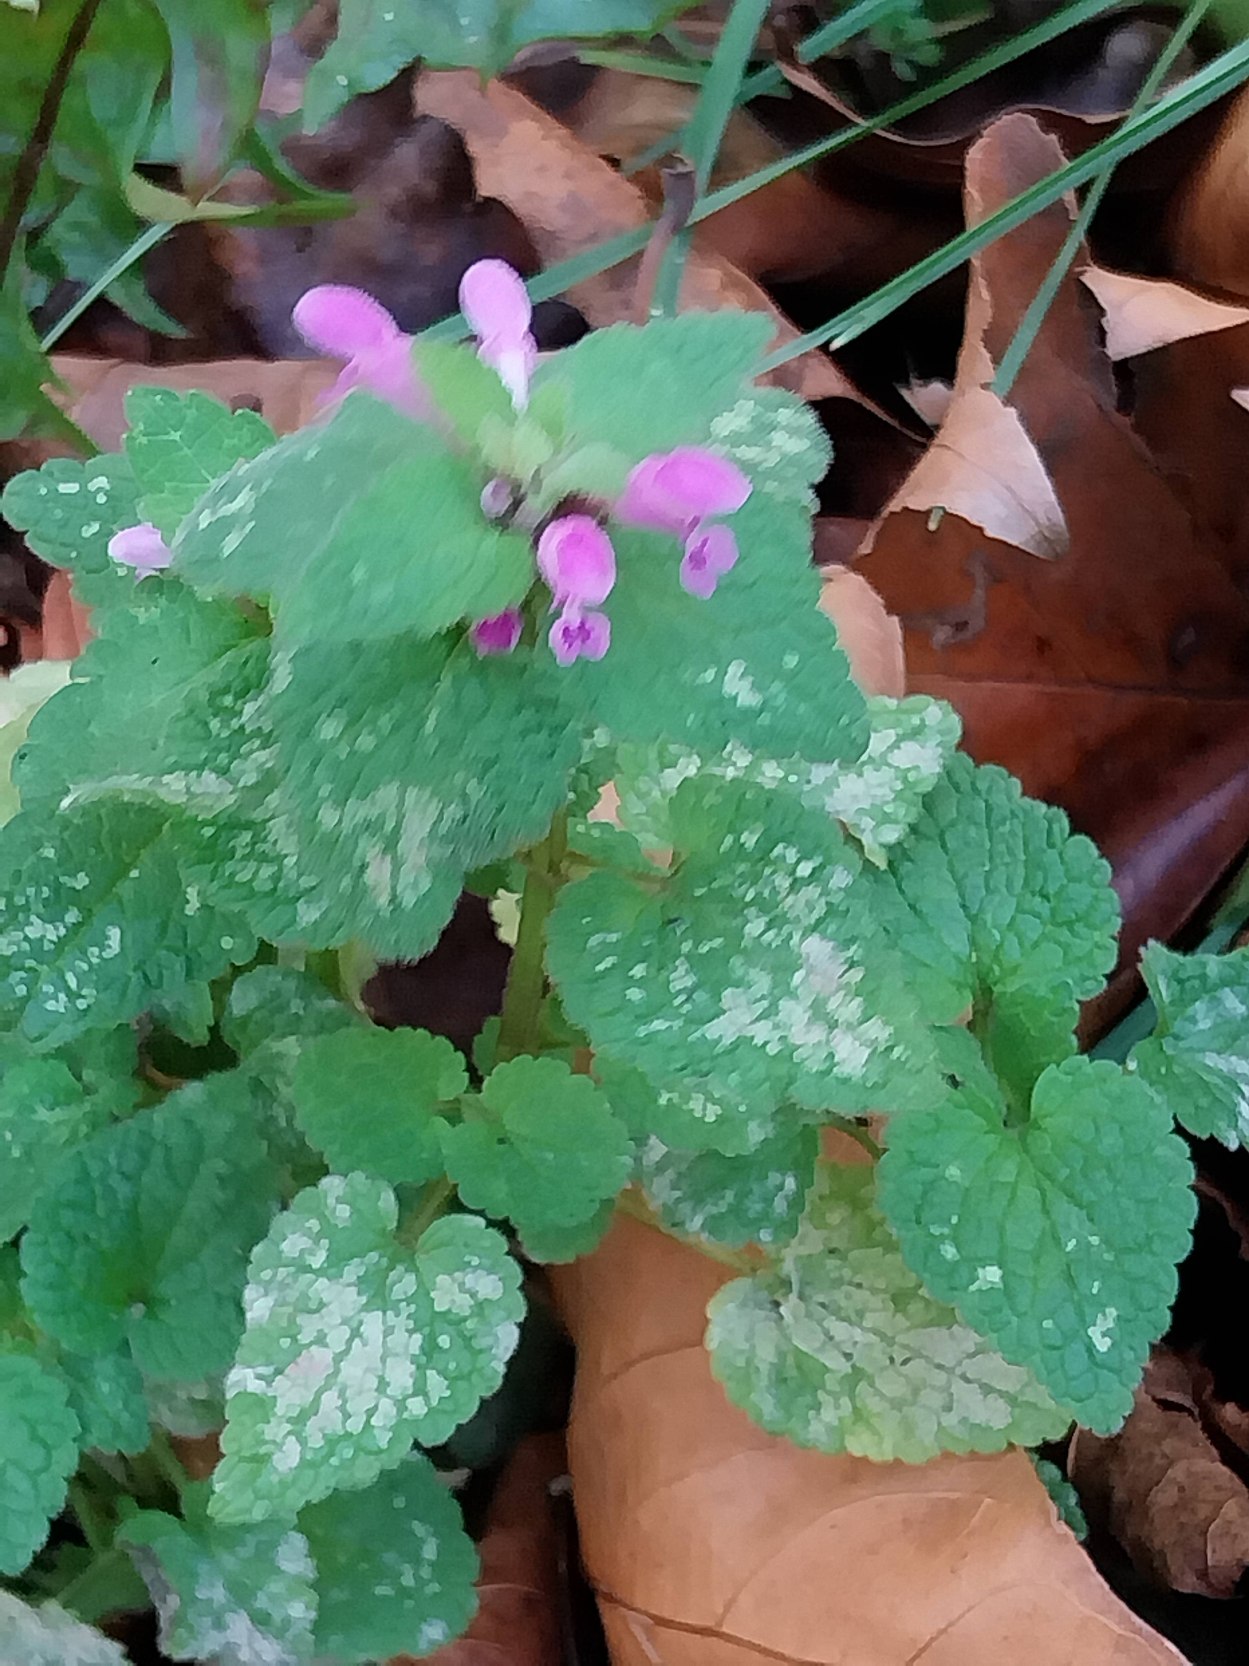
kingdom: Plantae
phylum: Tracheophyta
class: Magnoliopsida
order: Lamiales
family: Lamiaceae
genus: Lamium
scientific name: Lamium purpureum
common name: Rød tvetand
